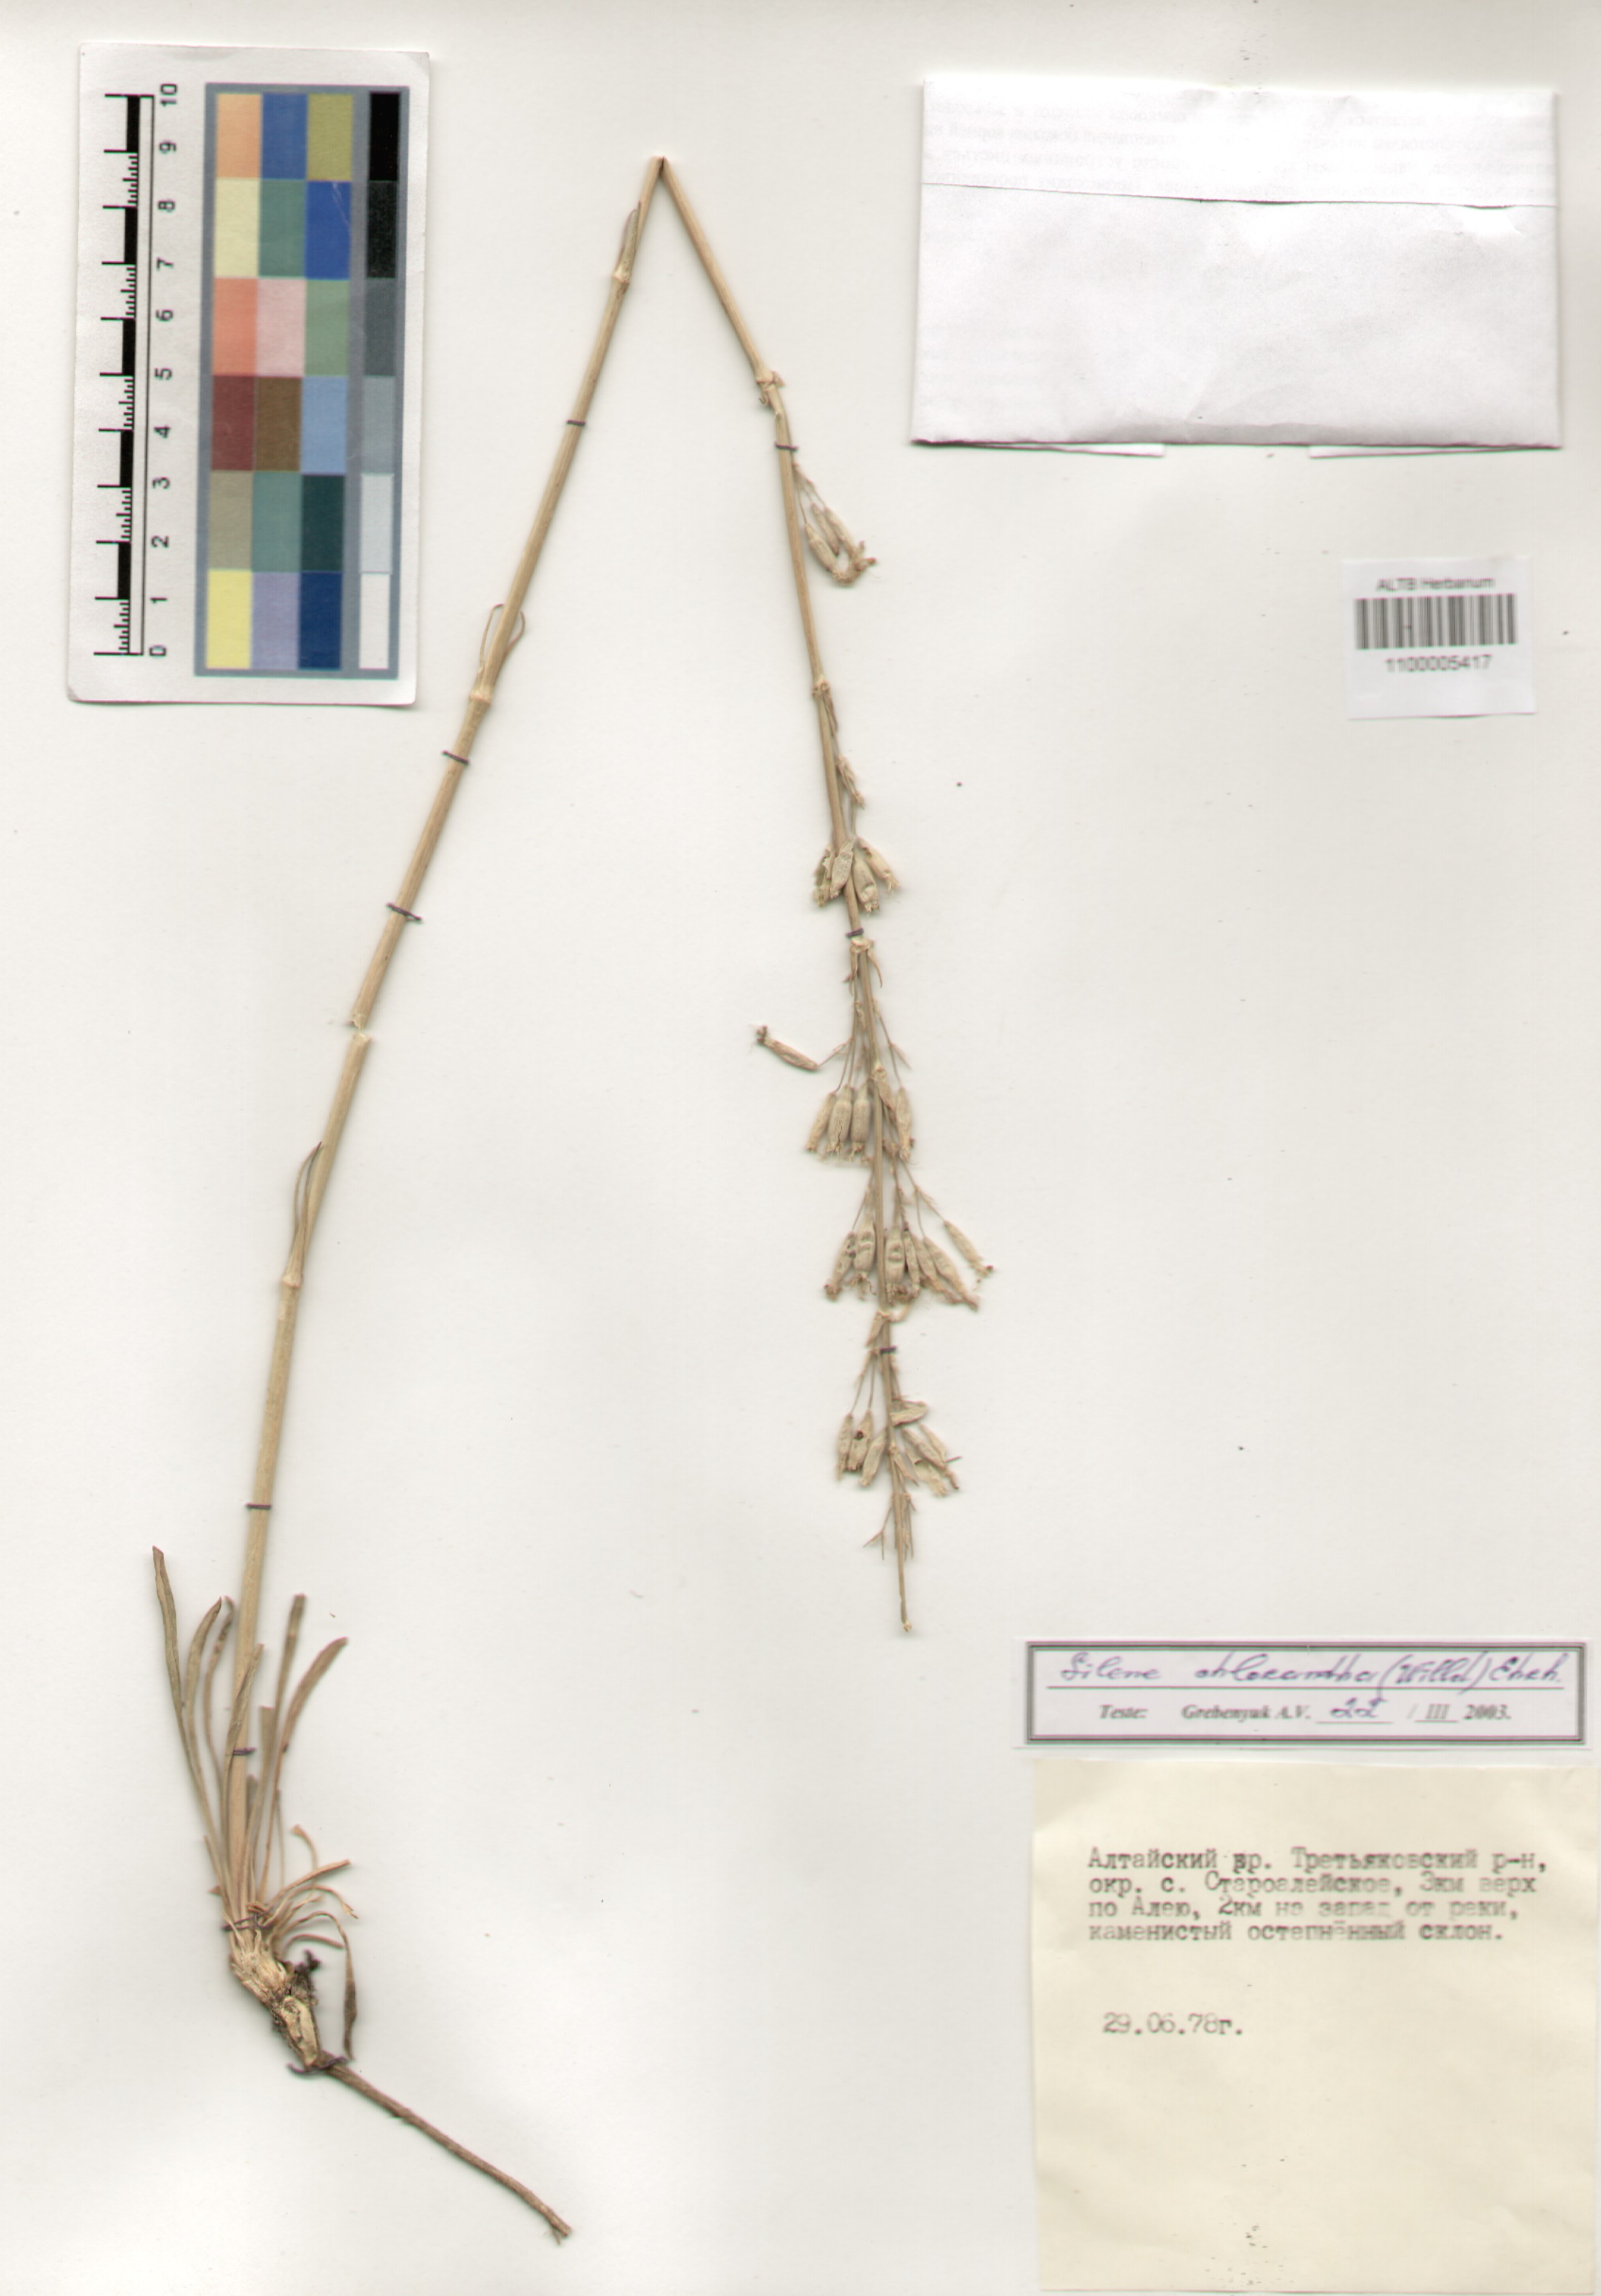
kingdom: Plantae
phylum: Tracheophyta
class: Magnoliopsida
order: Caryophyllales
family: Caryophyllaceae
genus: Silene
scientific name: Silene chlorantha
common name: Yellowgreen catchfly
